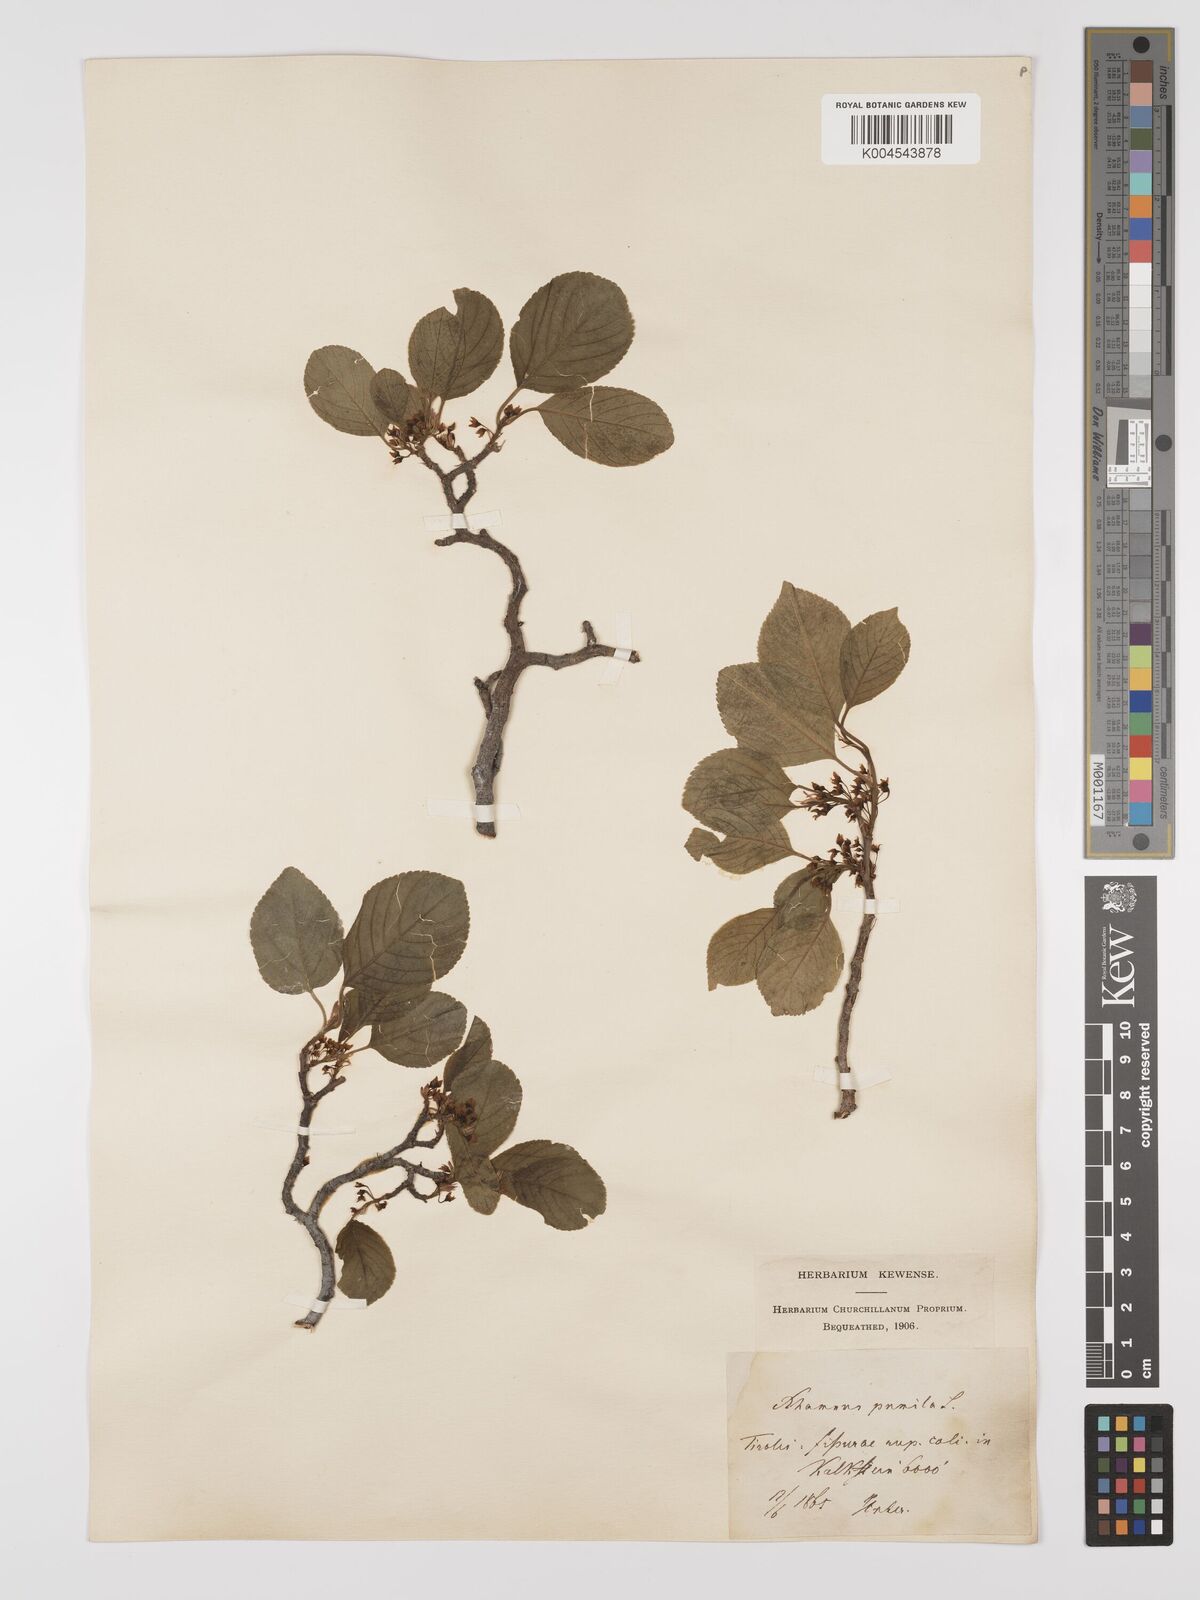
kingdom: Plantae
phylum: Tracheophyta
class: Magnoliopsida
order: Rosales
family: Rhamnaceae
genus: Rhamnus
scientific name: Rhamnus
